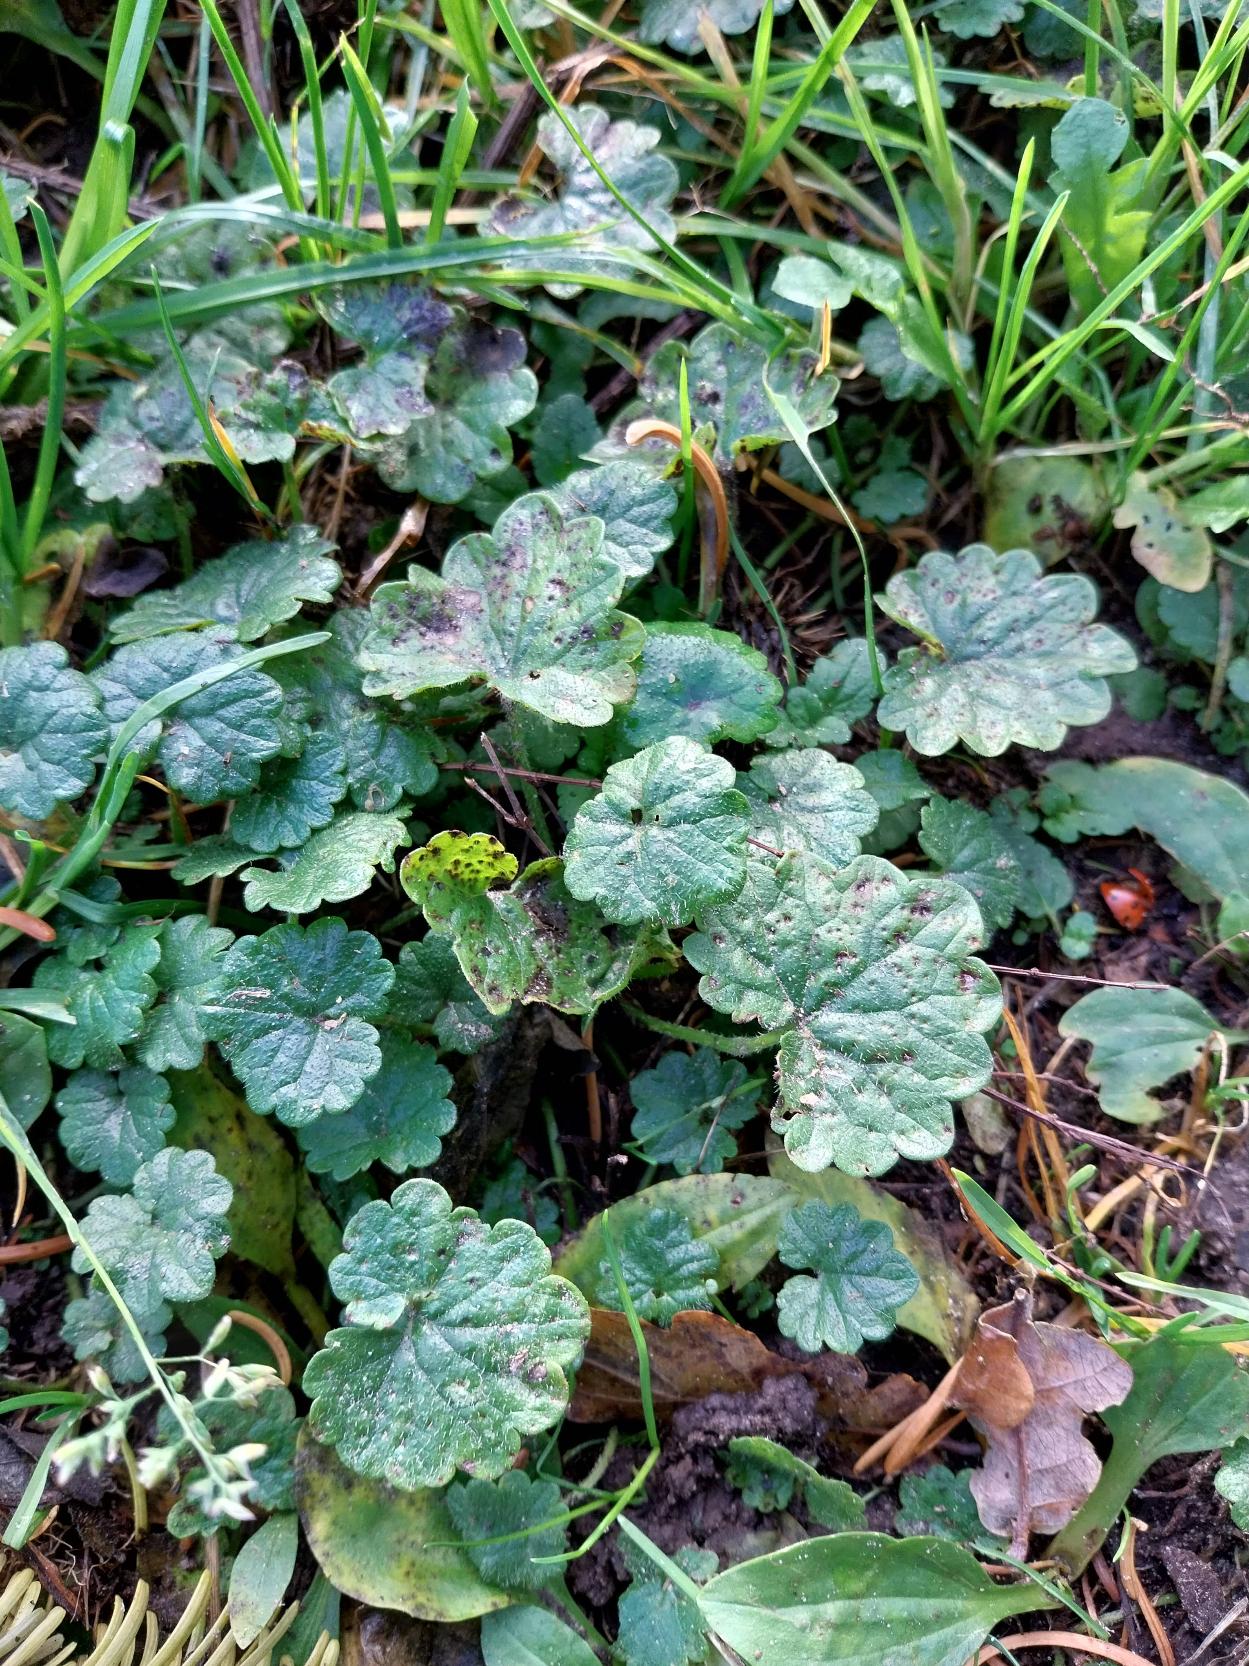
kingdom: Plantae
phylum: Tracheophyta
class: Magnoliopsida
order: Lamiales
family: Lamiaceae
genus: Glechoma
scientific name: Glechoma hederacea
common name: Korsknap
